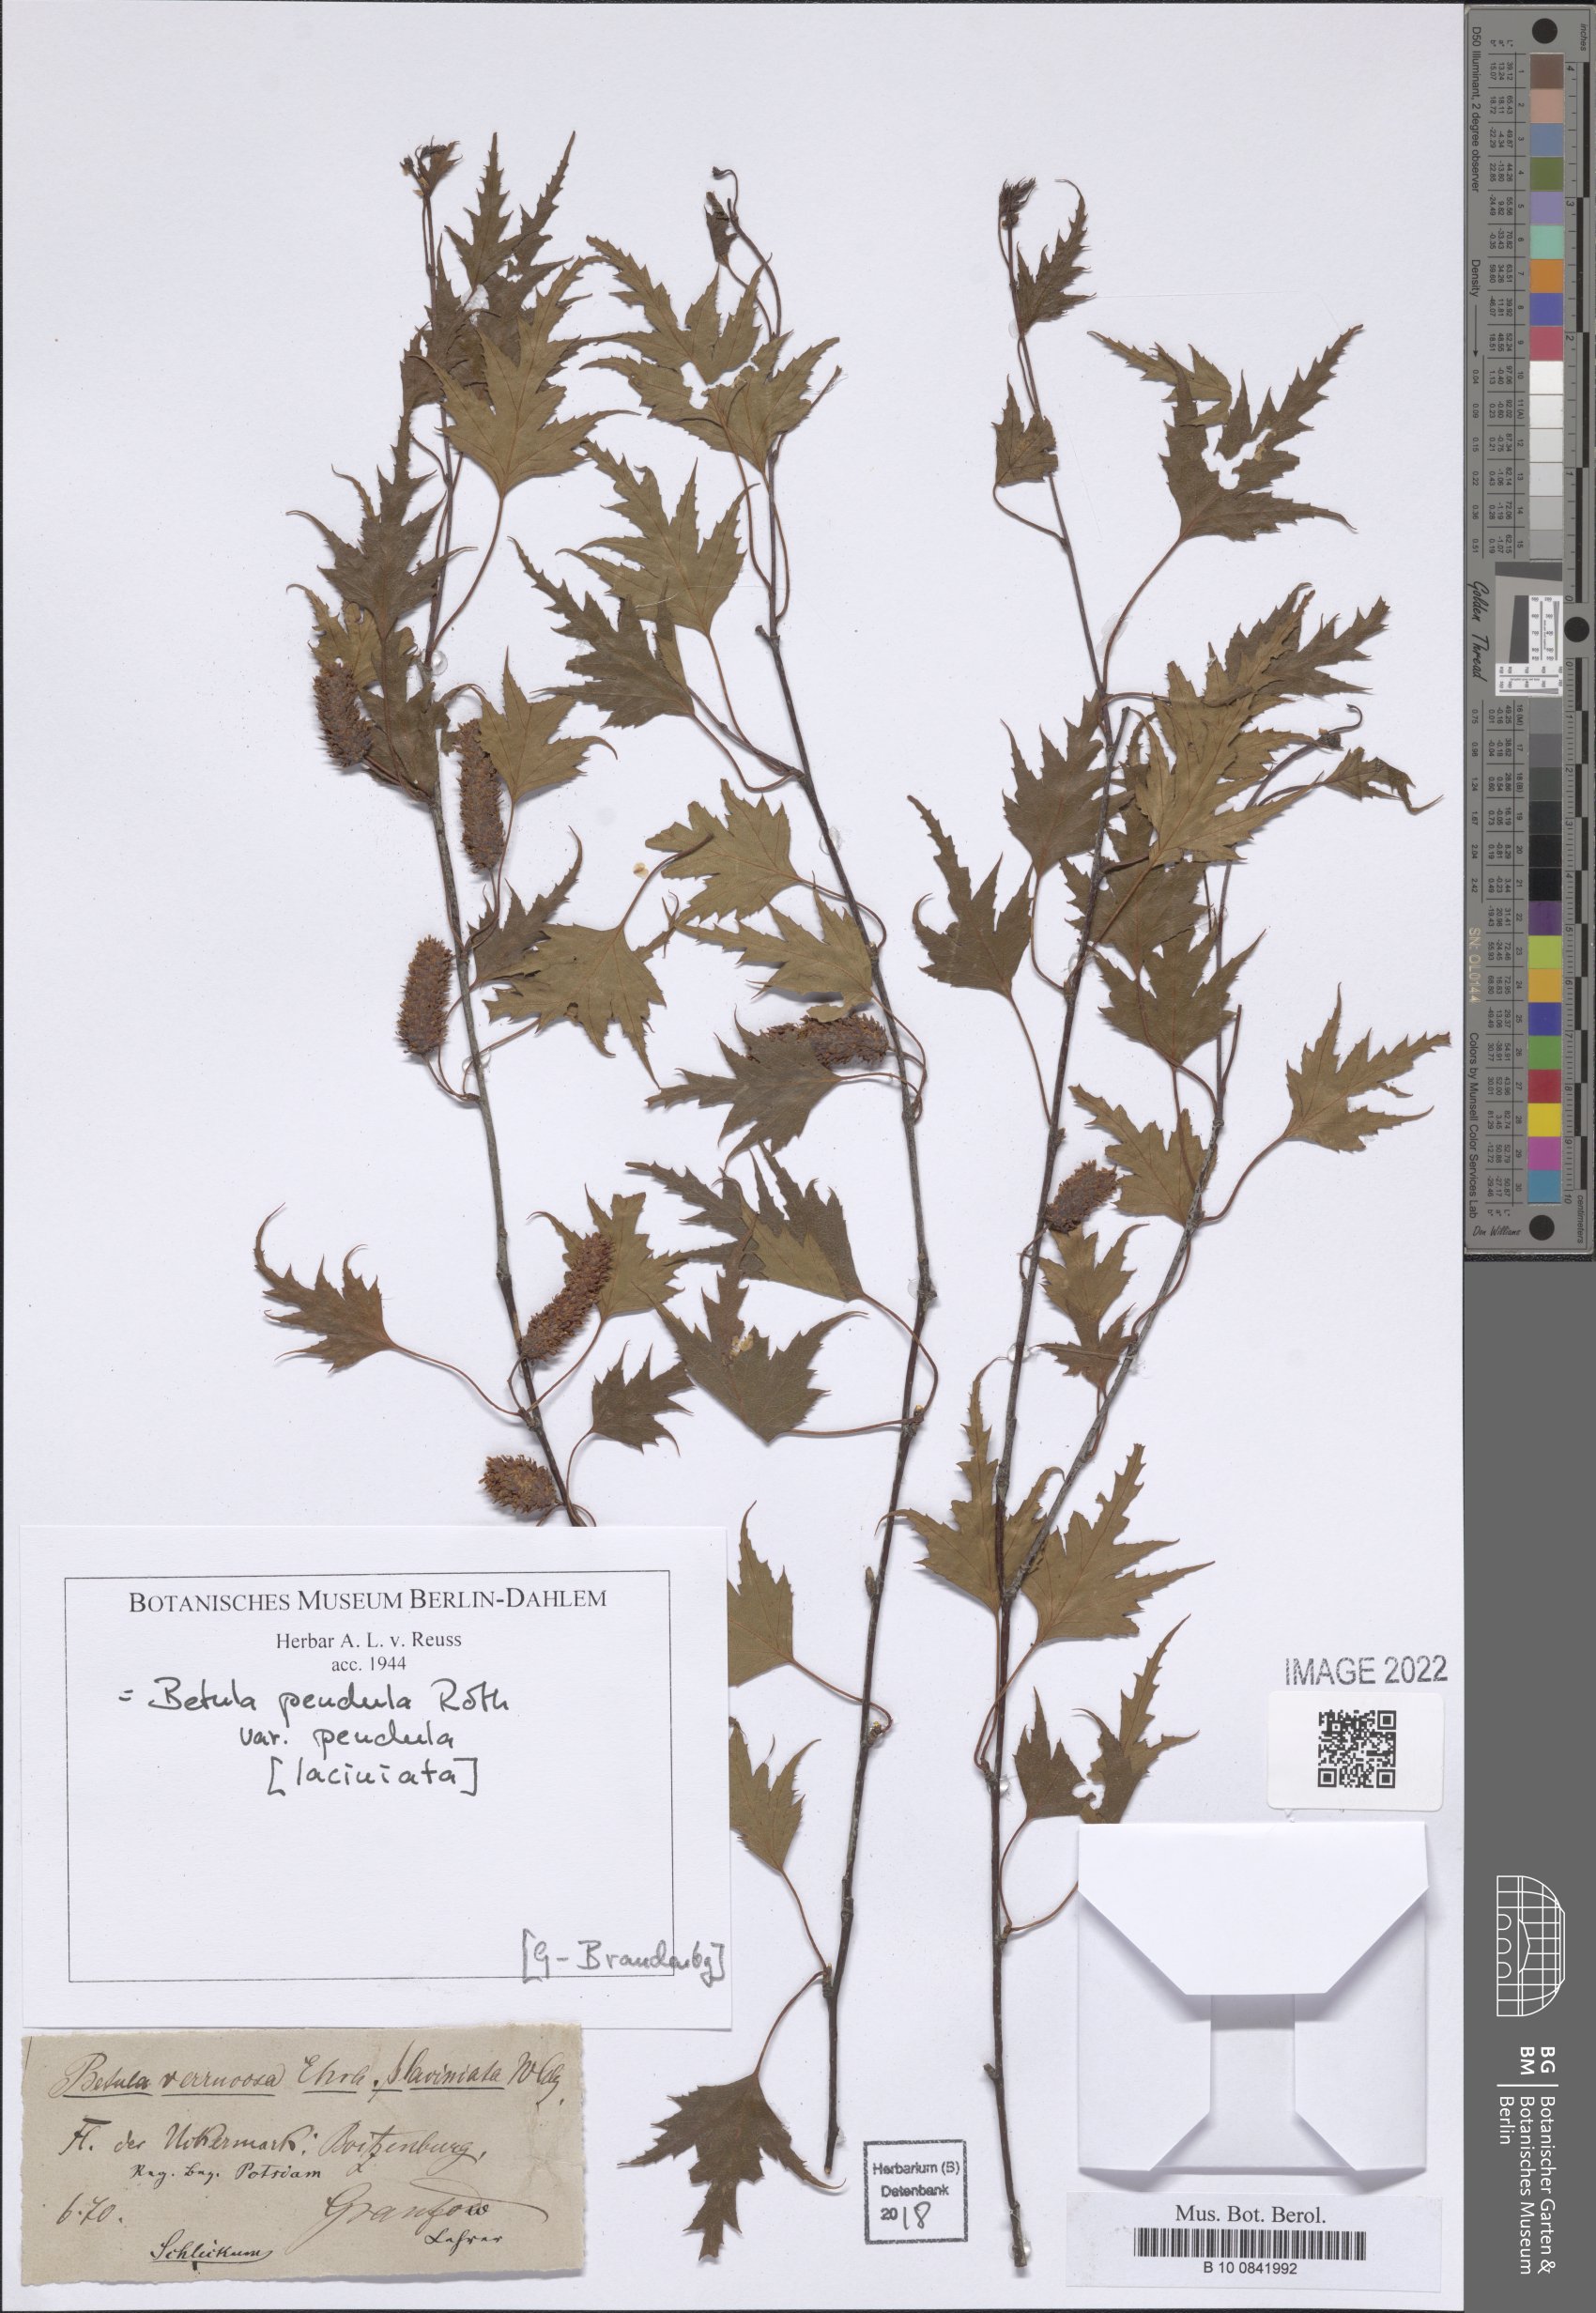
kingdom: Plantae
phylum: Tracheophyta
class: Magnoliopsida
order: Fagales
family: Betulaceae
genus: Betula
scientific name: Betula pendula
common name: Silver birch
